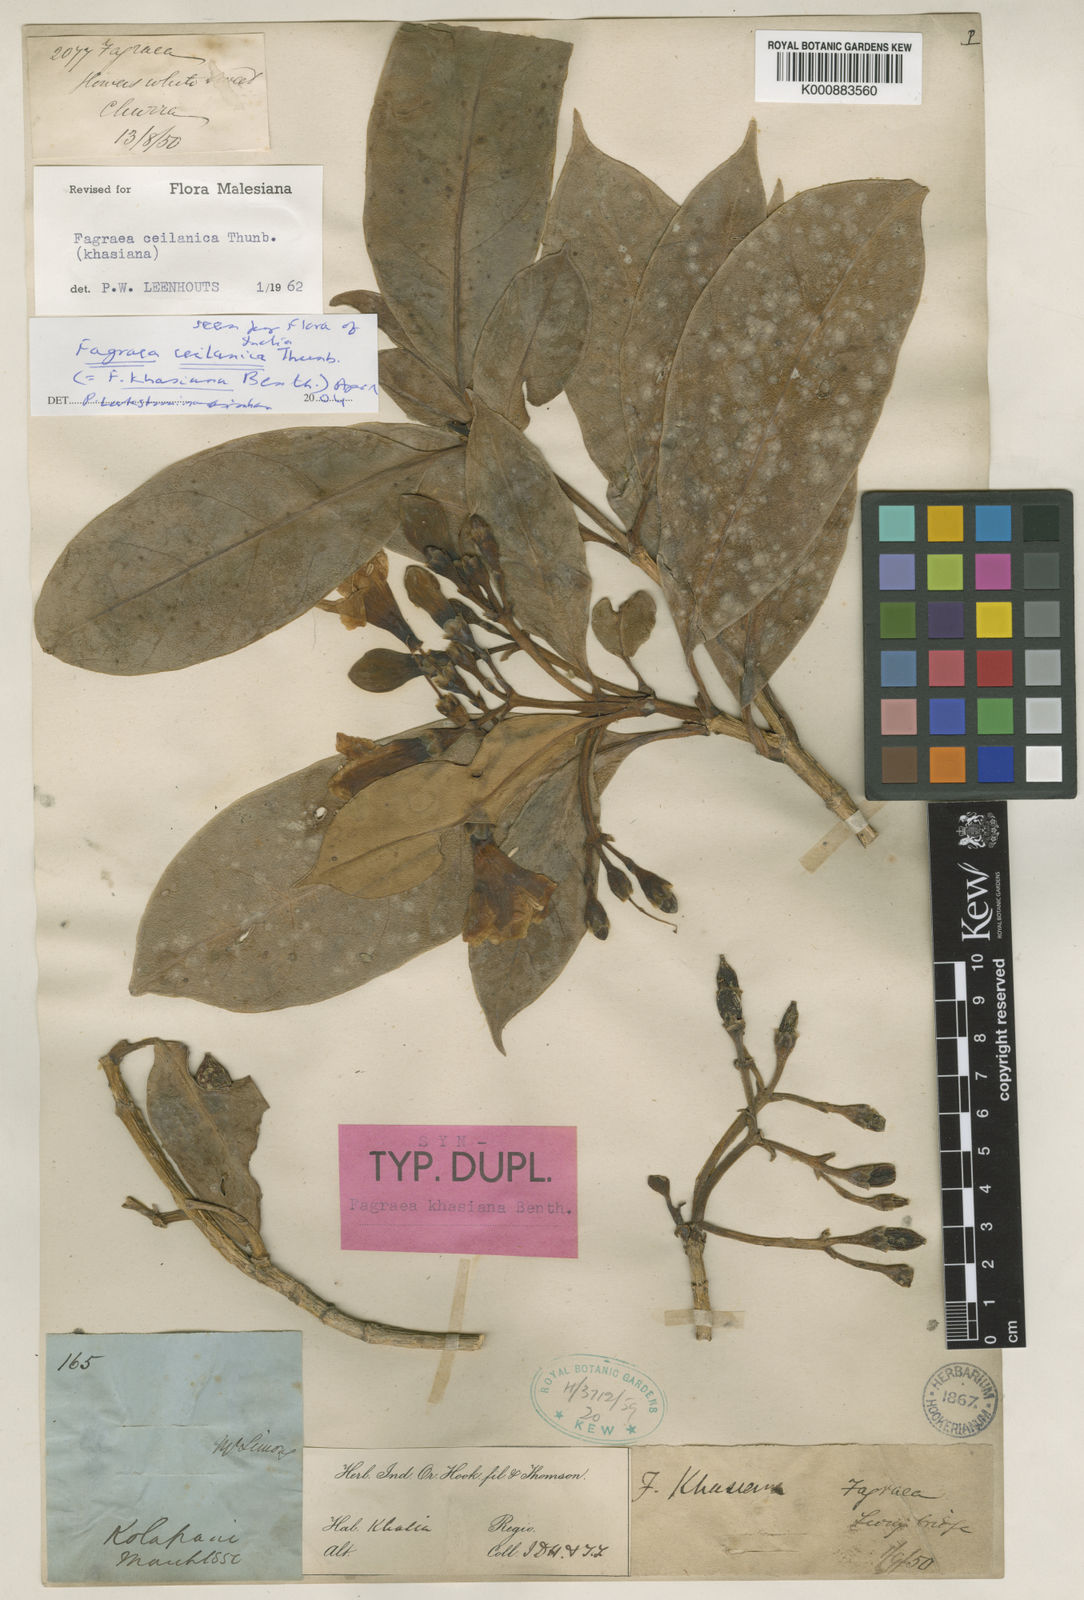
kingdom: Plantae
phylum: Tracheophyta
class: Magnoliopsida
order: Gentianales
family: Gentianaceae
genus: Fagraea
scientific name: Fagraea ceilanica
